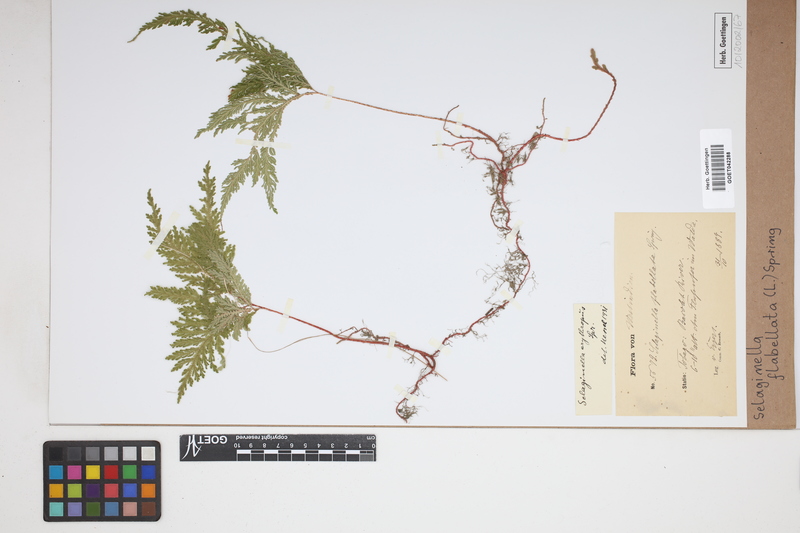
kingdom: Plantae
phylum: Tracheophyta
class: Lycopodiopsida
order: Selaginellales
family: Selaginellaceae
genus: Selaginella
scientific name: Selaginella flabellata
